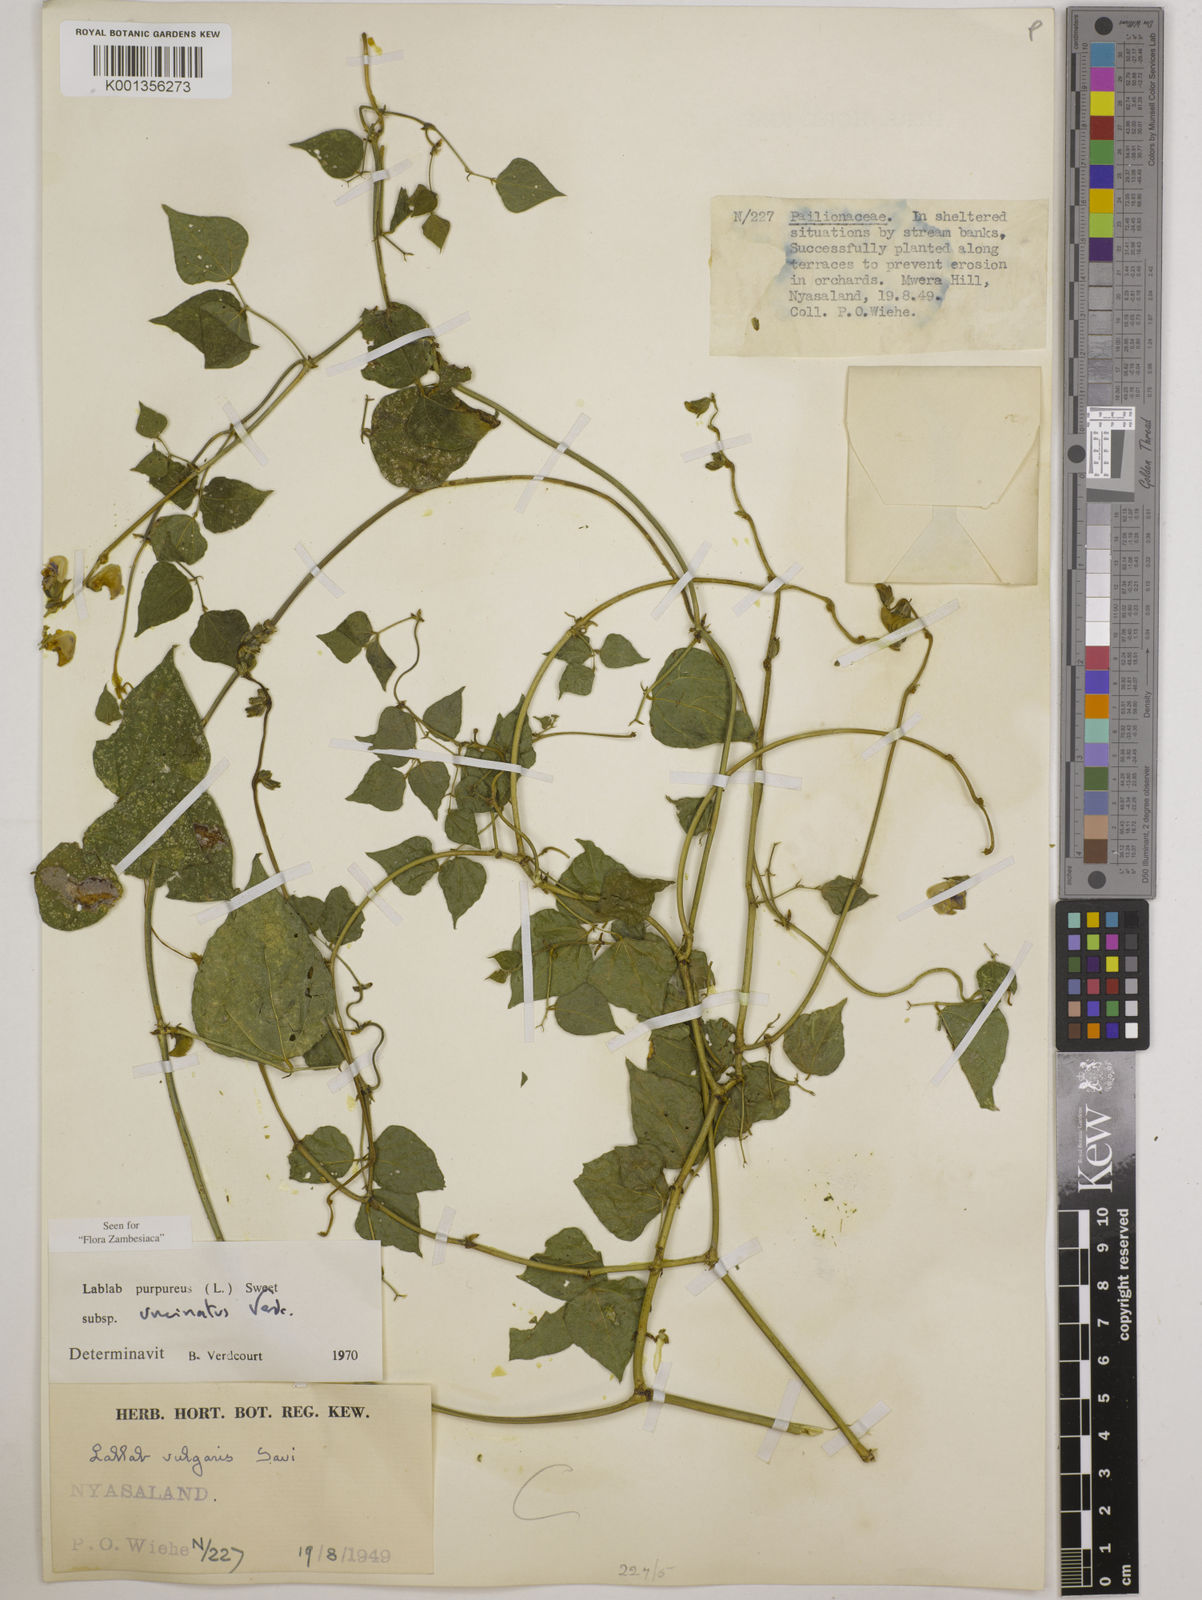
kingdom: Plantae
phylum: Tracheophyta
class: Magnoliopsida
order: Fabales
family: Fabaceae
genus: Lablab
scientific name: Lablab purpureus
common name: Lablab-bean
